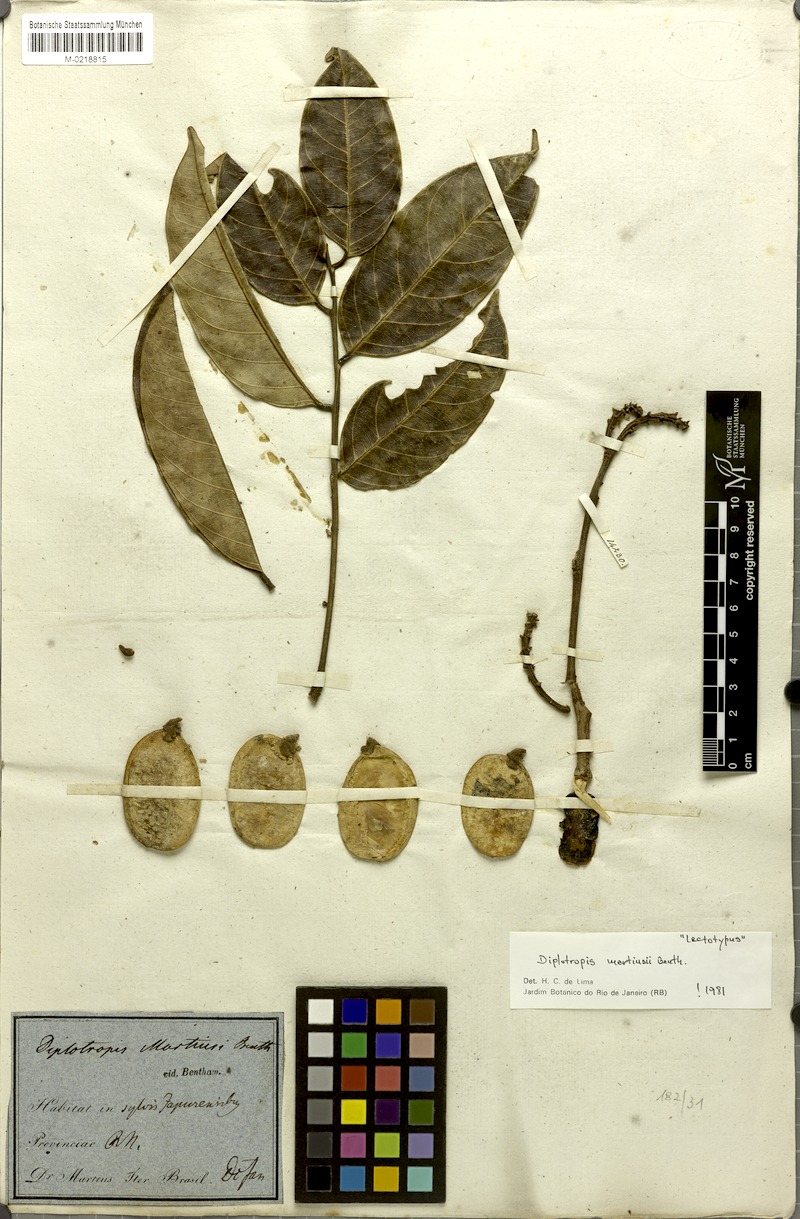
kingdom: Plantae
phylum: Tracheophyta
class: Magnoliopsida
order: Fabales
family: Fabaceae
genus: Diplotropis
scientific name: Diplotropis martiusii
